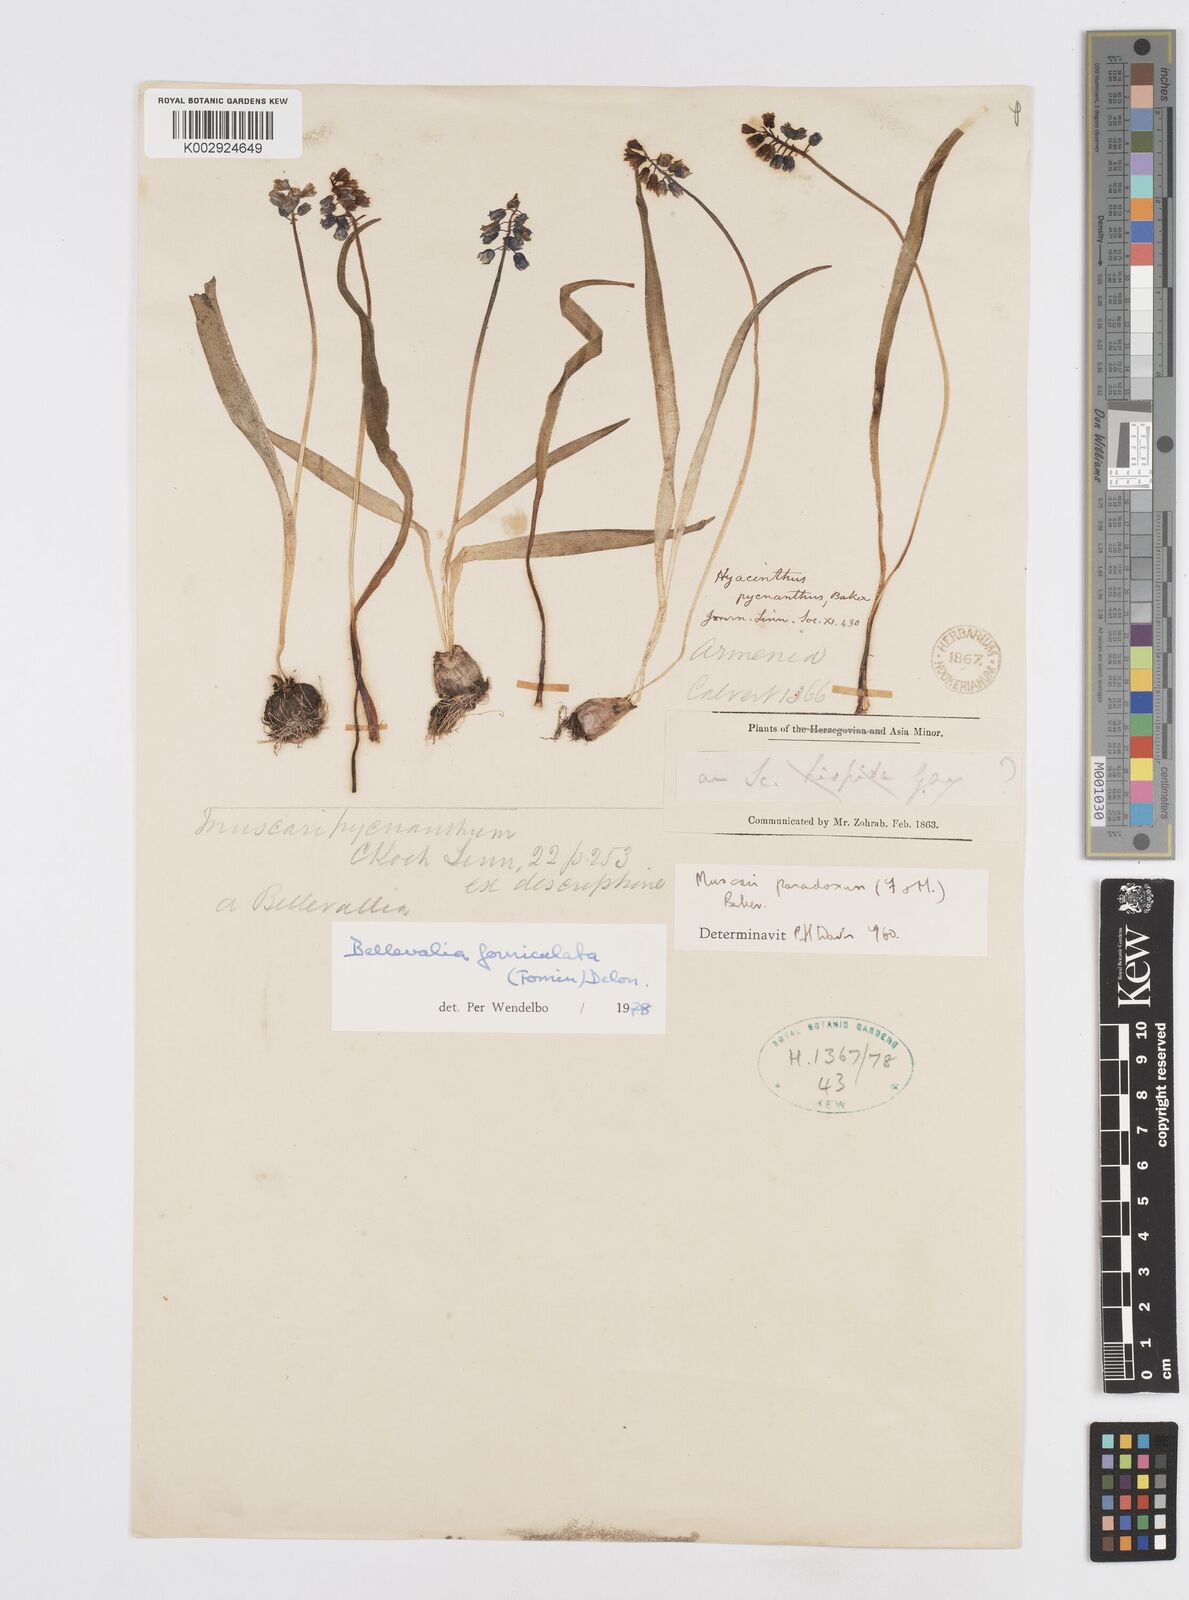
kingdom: Plantae
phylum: Tracheophyta
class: Liliopsida
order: Asparagales
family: Asparagaceae
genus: Muscari
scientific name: Muscari forniculatum
